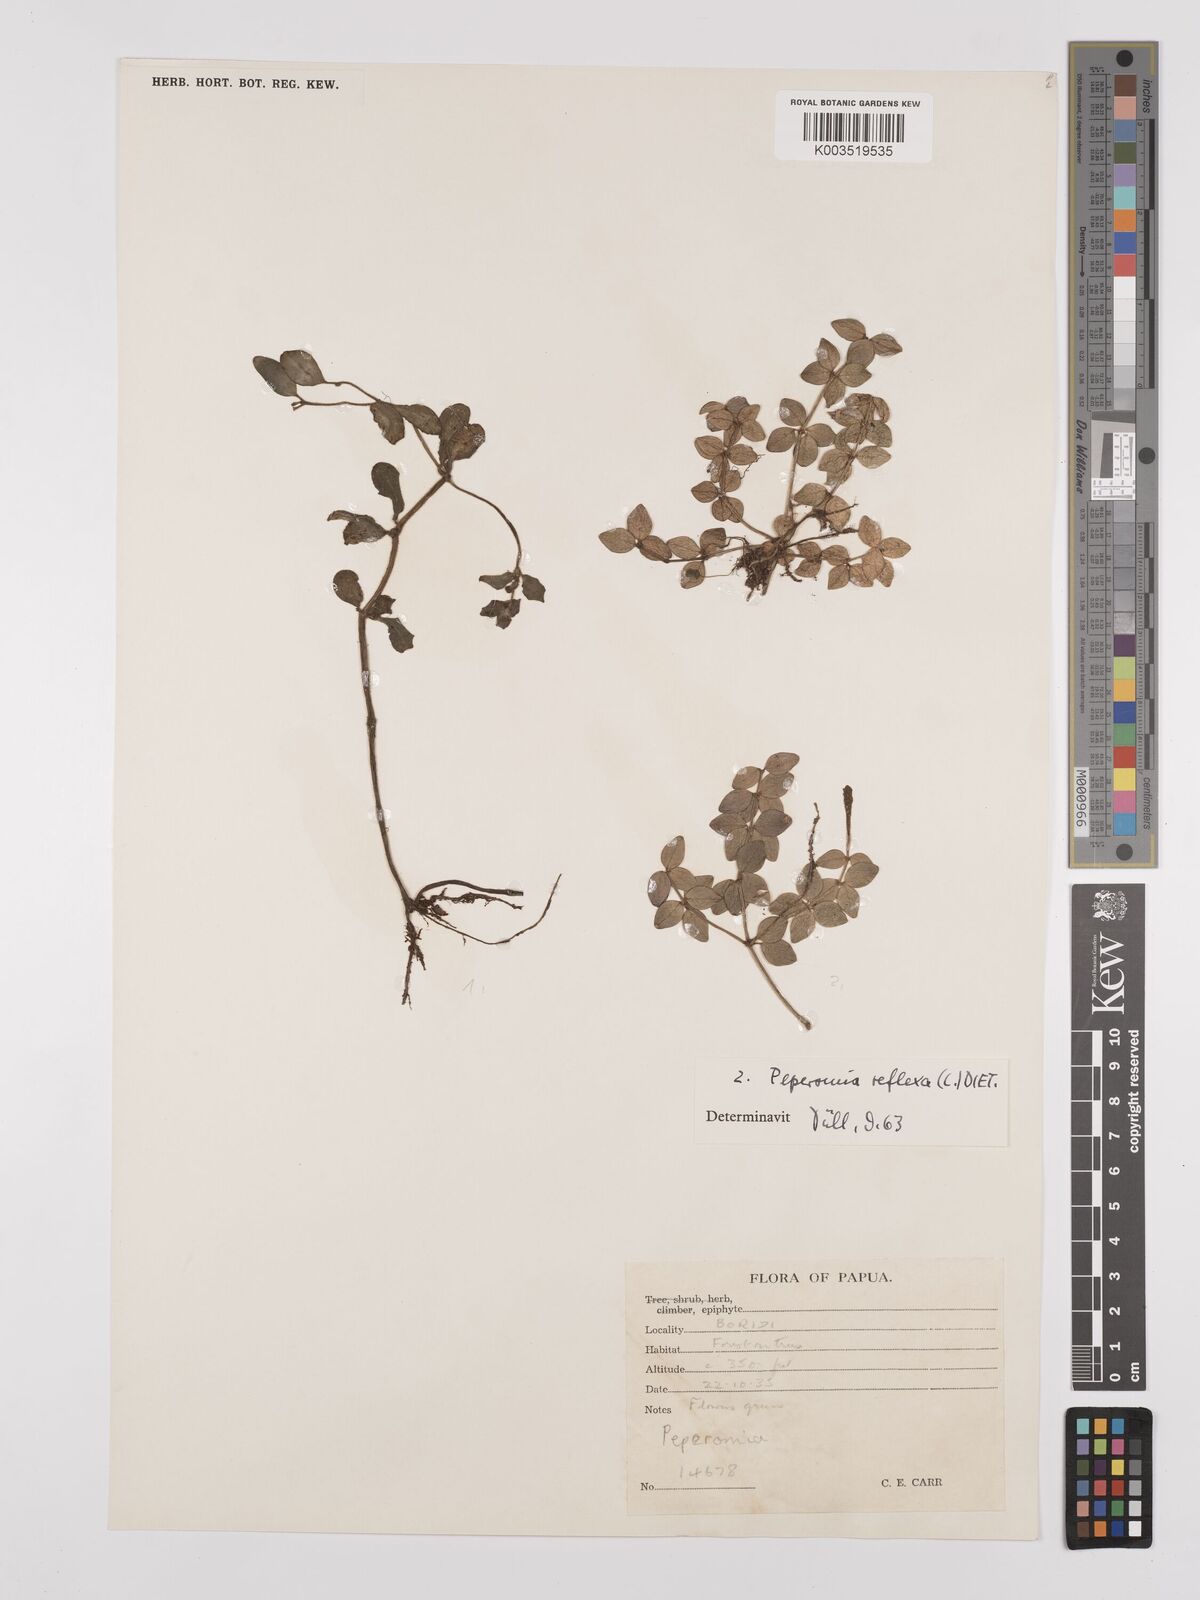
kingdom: Plantae
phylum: Tracheophyta
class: Magnoliopsida
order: Piperales
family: Piperaceae
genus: Peperomia
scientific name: Peperomia tetraphylla
